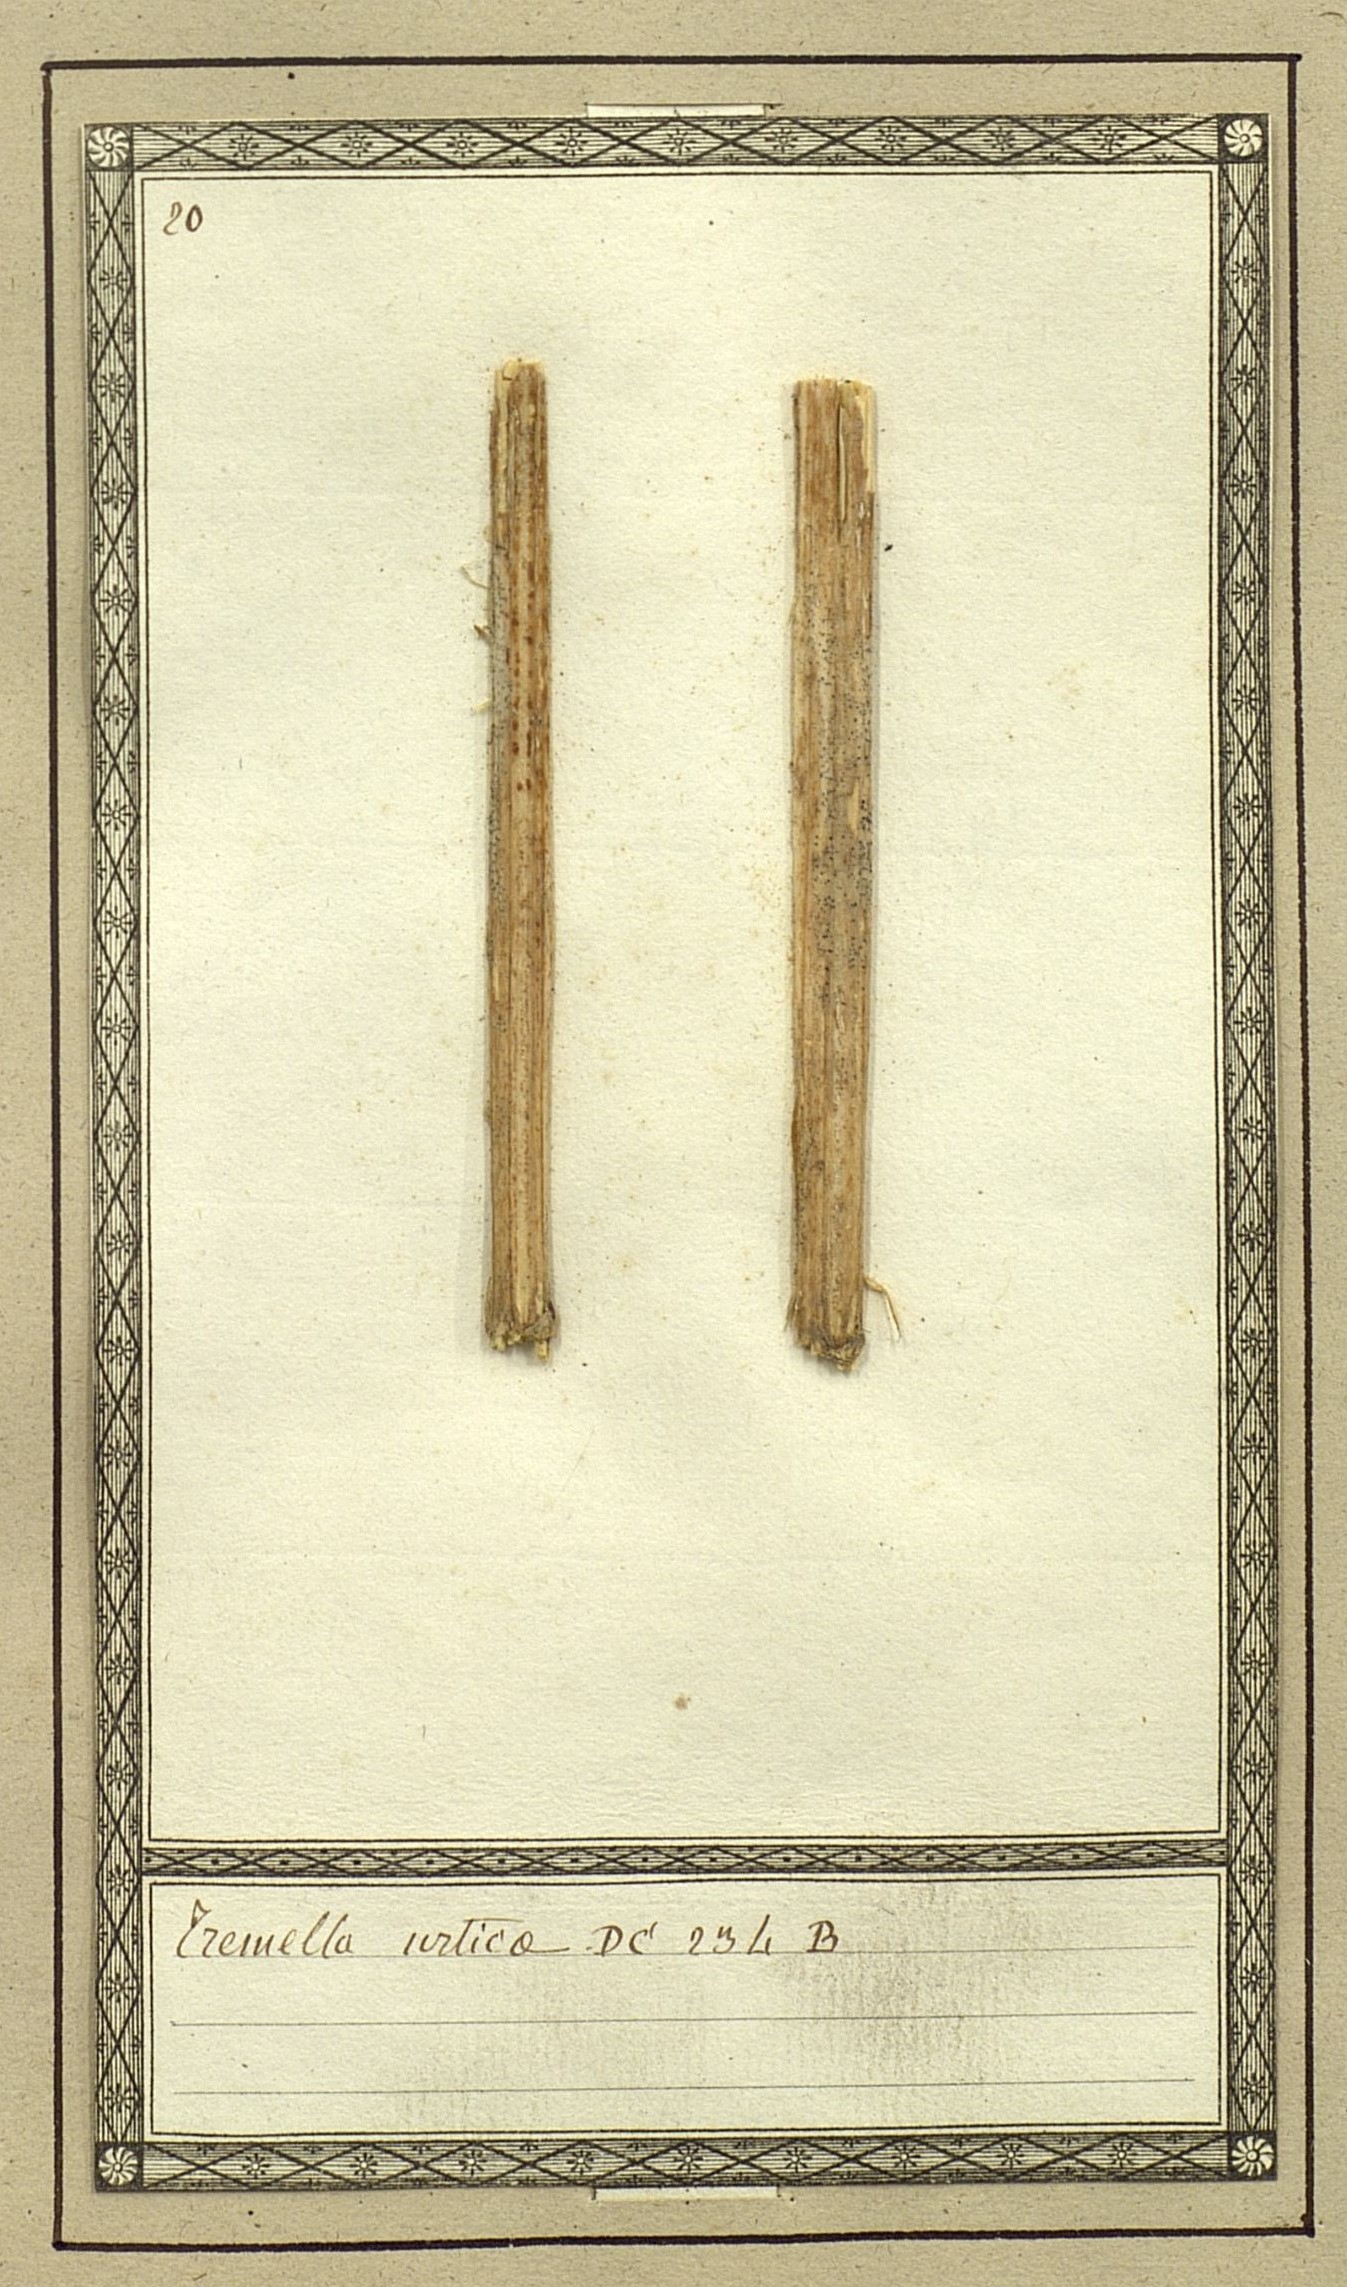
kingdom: Fungi
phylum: Basidiomycota
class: Tremellomycetes
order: Tremellales
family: Tremellaceae
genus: Tremella
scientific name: Tremella
